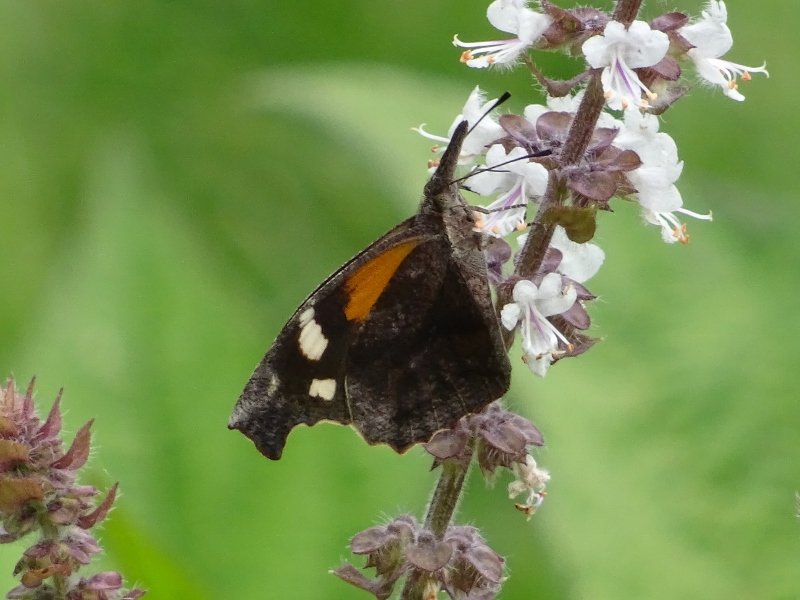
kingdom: Animalia
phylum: Arthropoda
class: Insecta
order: Lepidoptera
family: Nymphalidae
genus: Libytheana
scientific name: Libytheana carinenta
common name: American Snout
